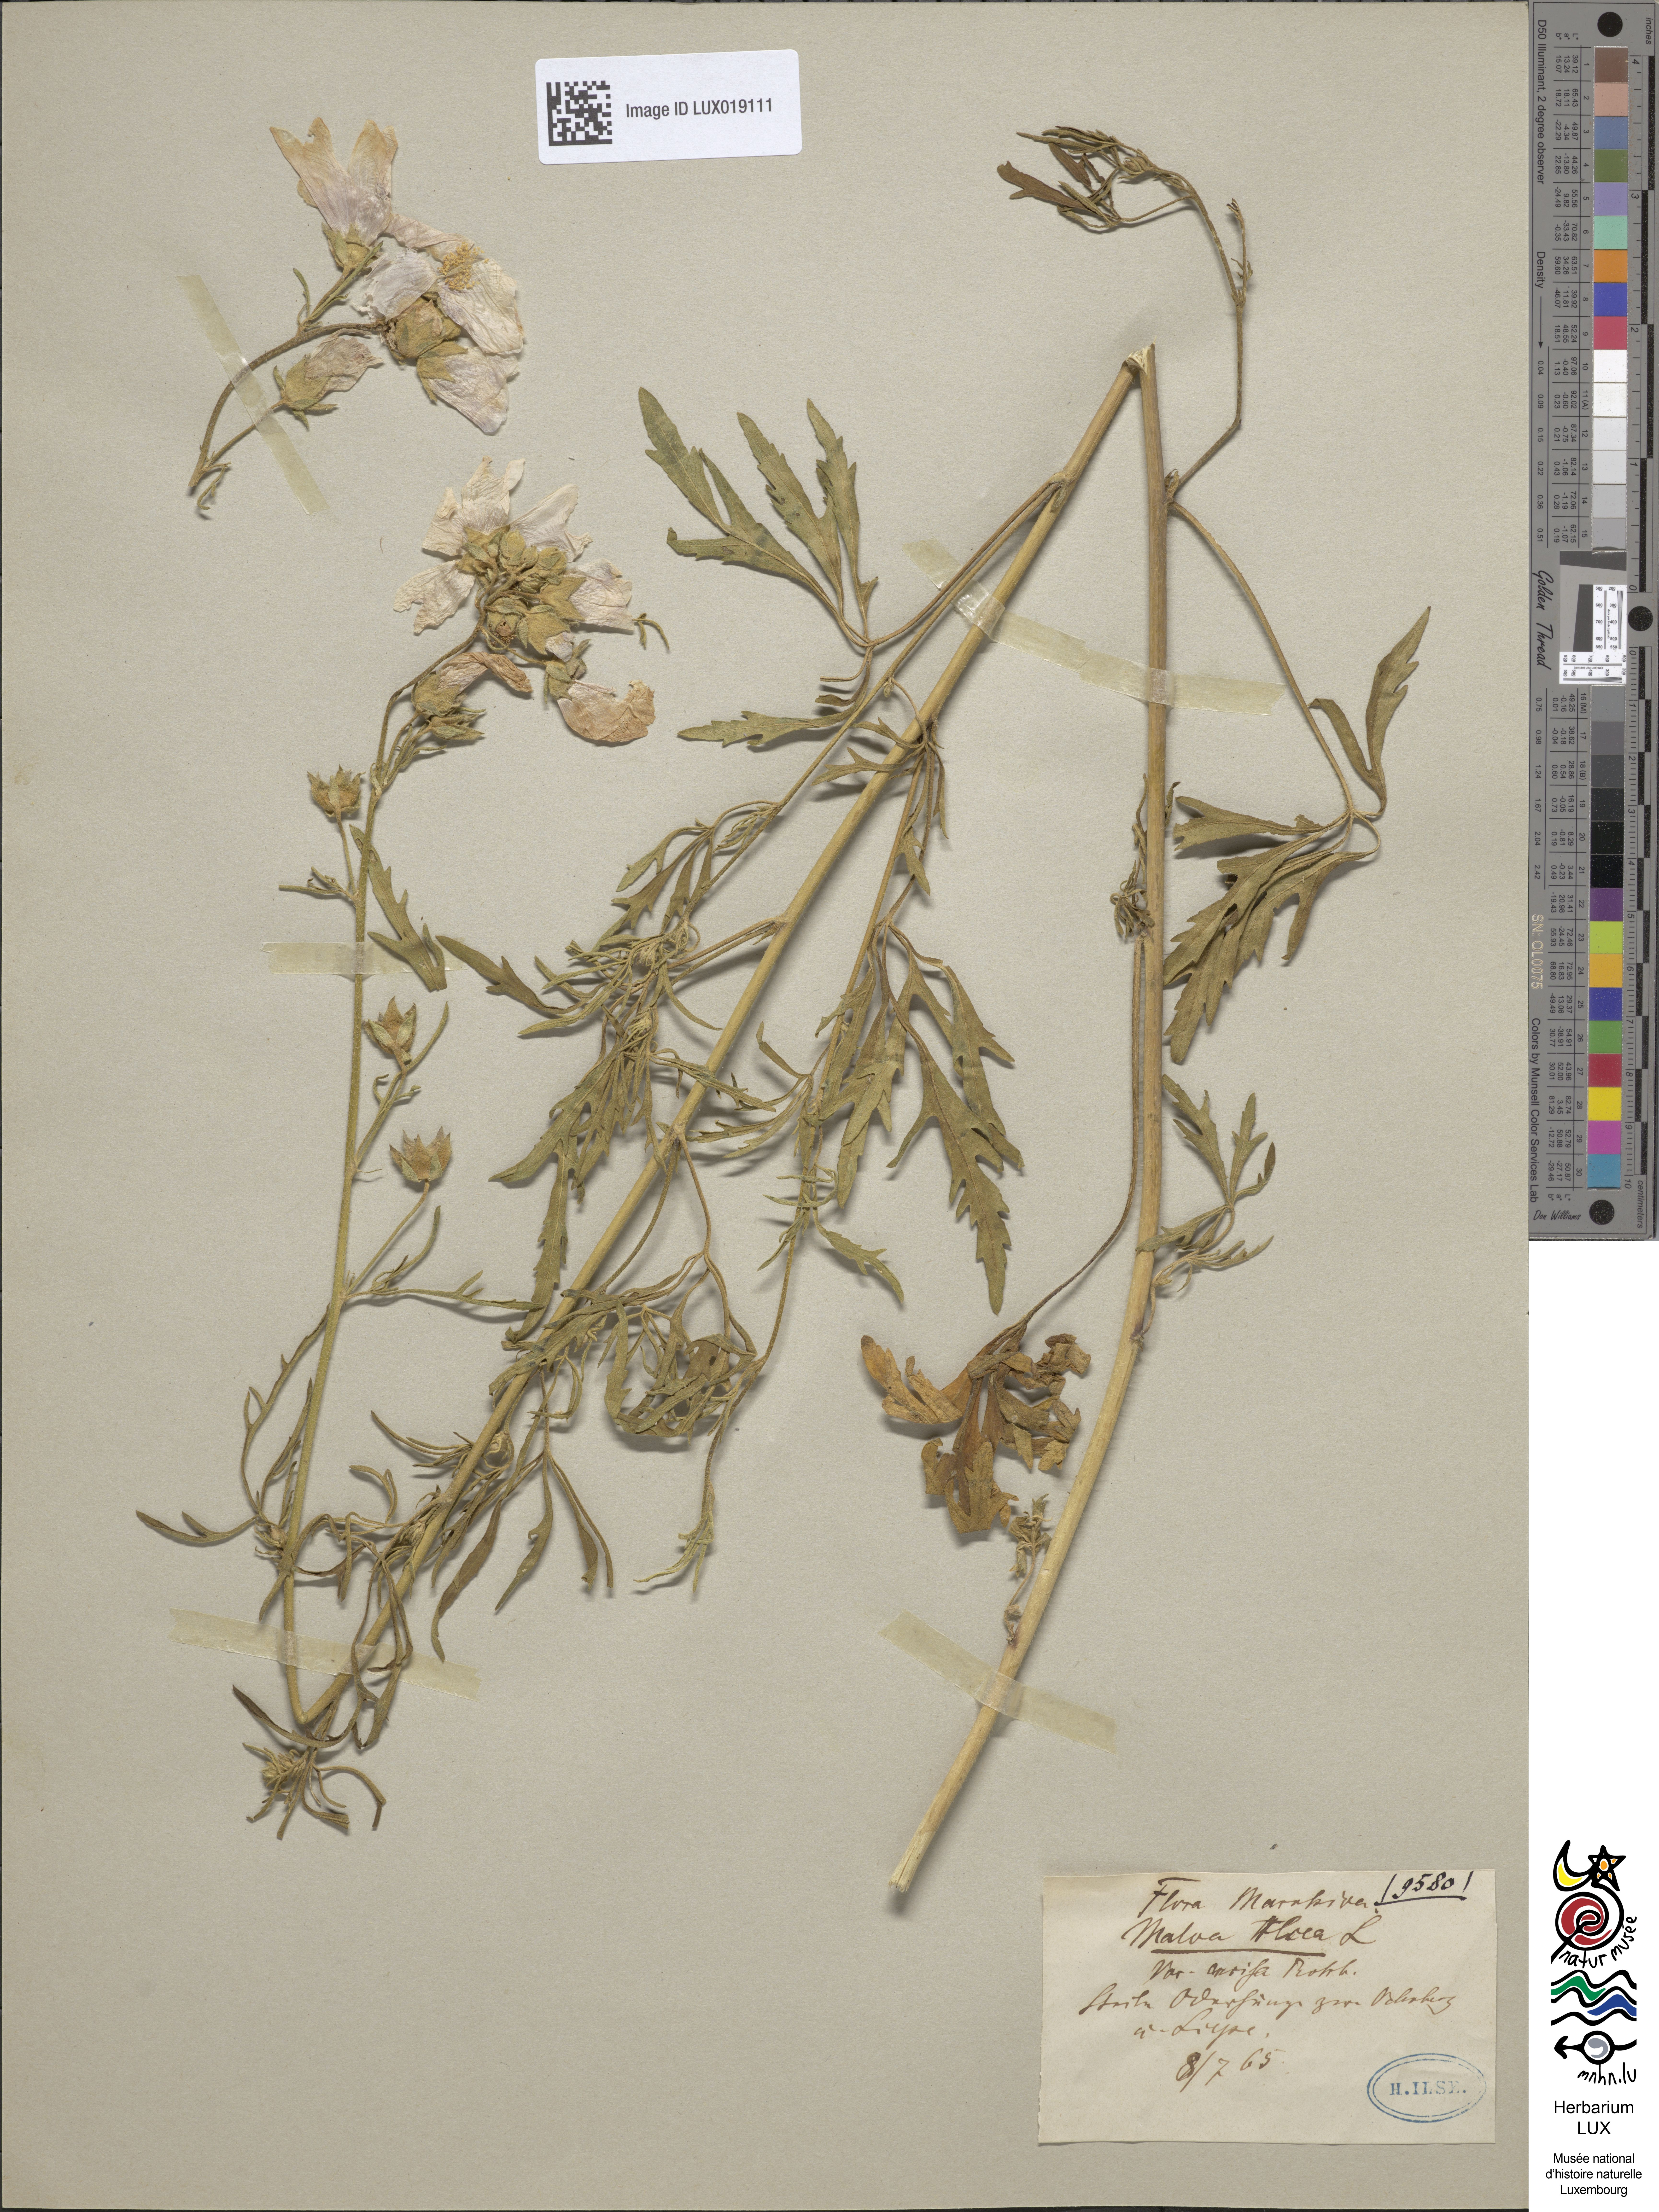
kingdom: Plantae
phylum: Tracheophyta
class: Magnoliopsida
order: Malvales
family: Malvaceae
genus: Malva
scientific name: Malva alcea
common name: Greater musk-mallow
